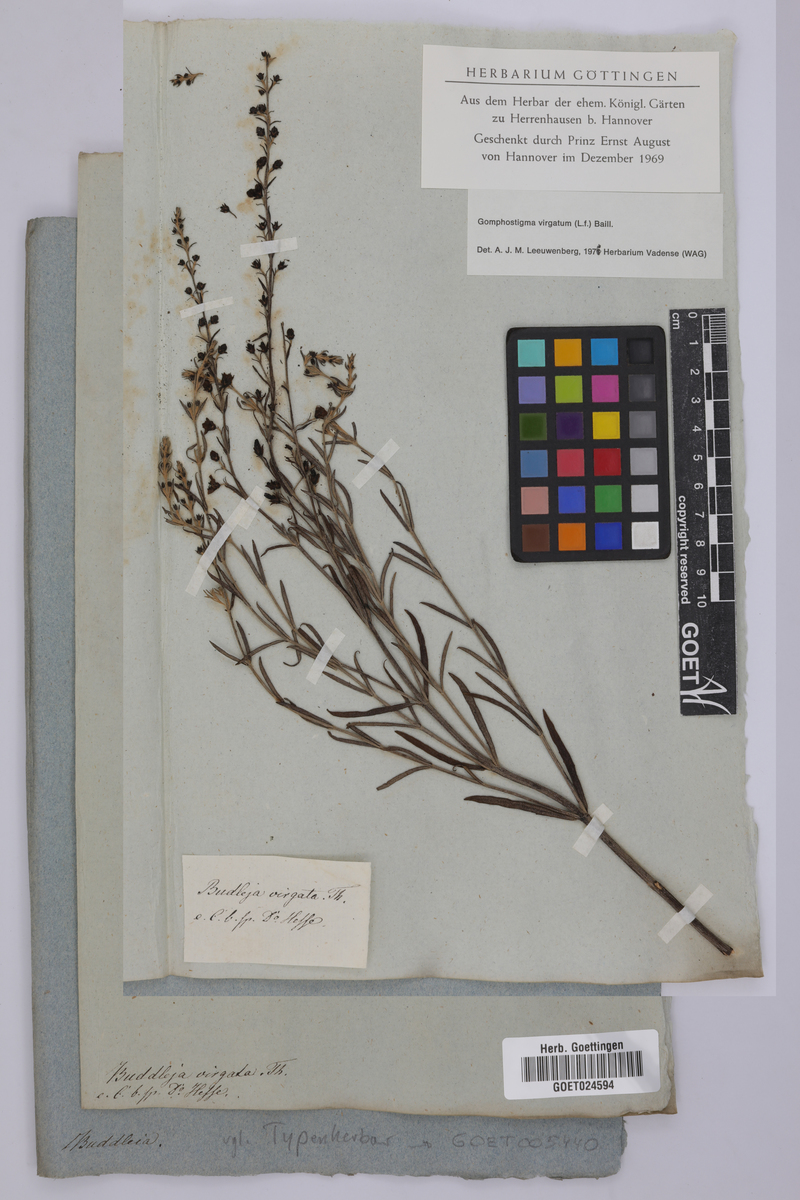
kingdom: Plantae
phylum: Tracheophyta
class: Magnoliopsida
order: Lamiales
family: Scrophulariaceae
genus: Buddleja
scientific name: Buddleja virgata
